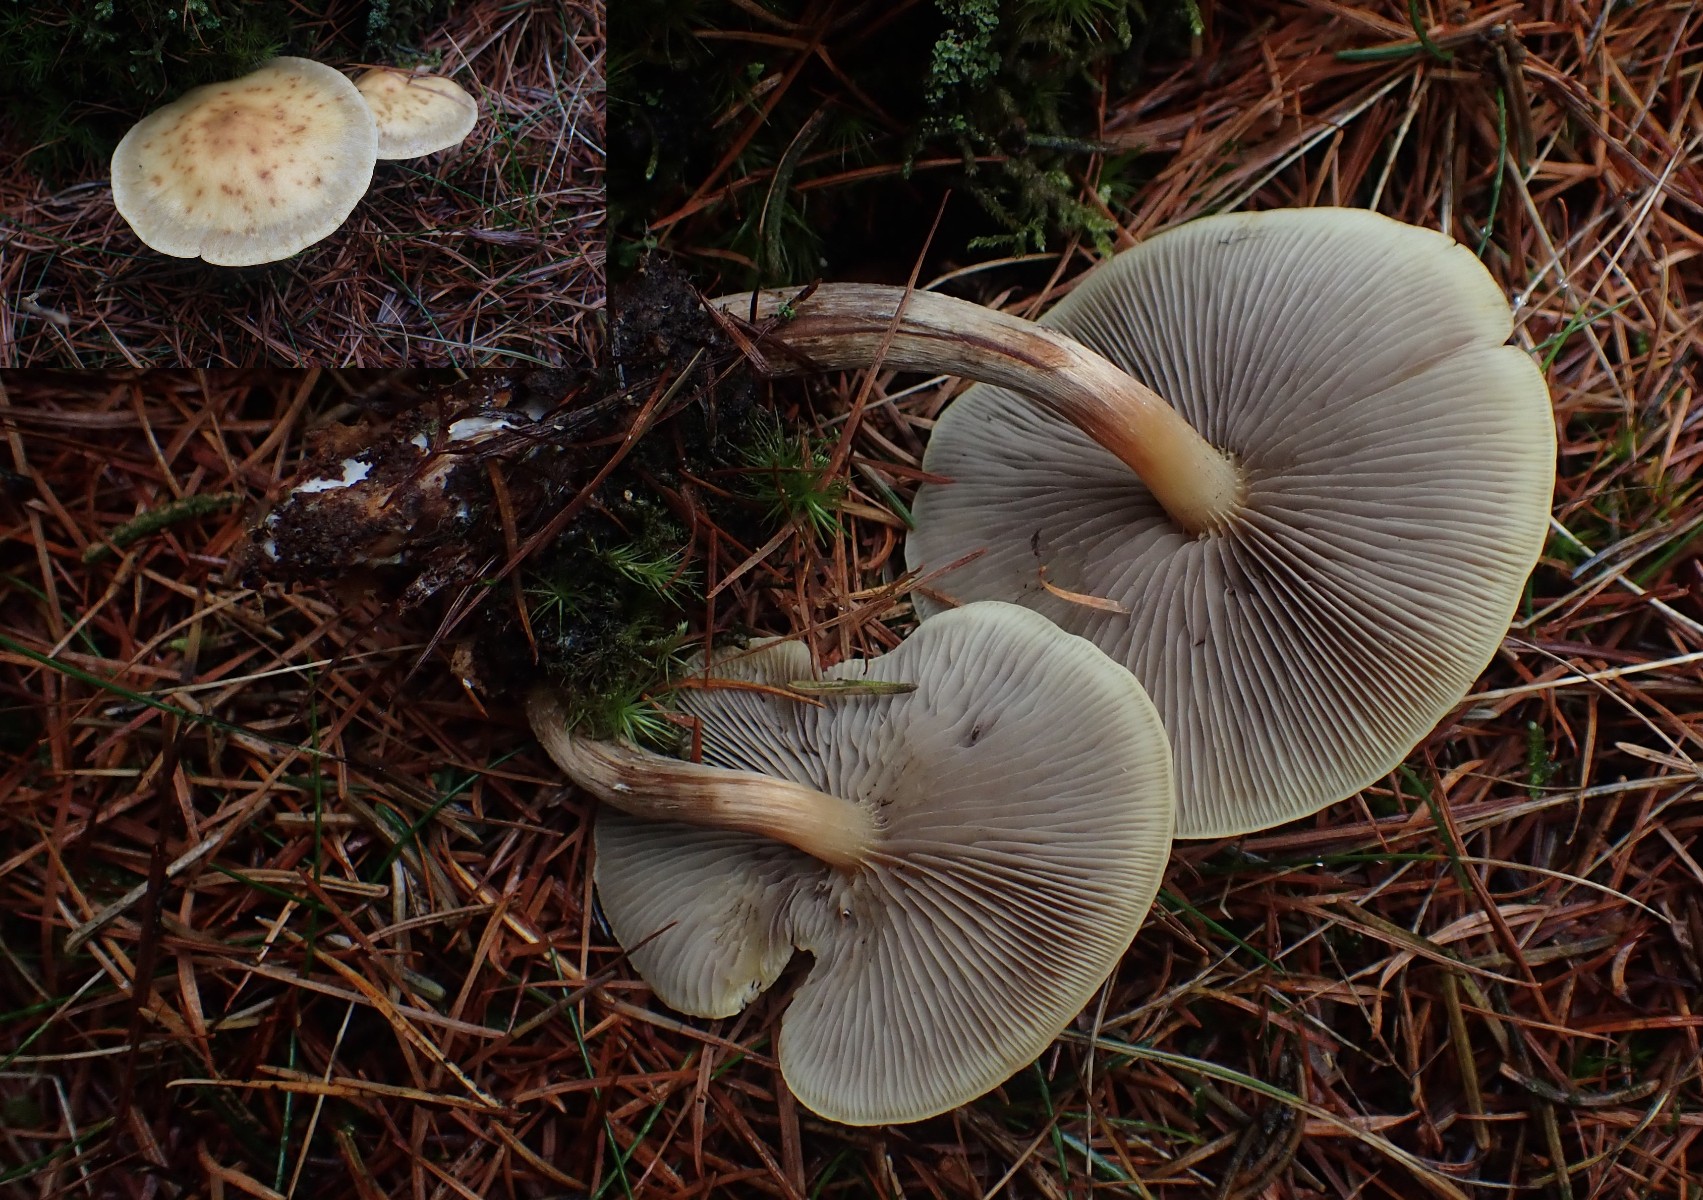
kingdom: Fungi
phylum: Basidiomycota
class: Agaricomycetes
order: Agaricales
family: Strophariaceae
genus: Hypholoma
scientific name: Hypholoma capnoides
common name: gran-svovlhat
